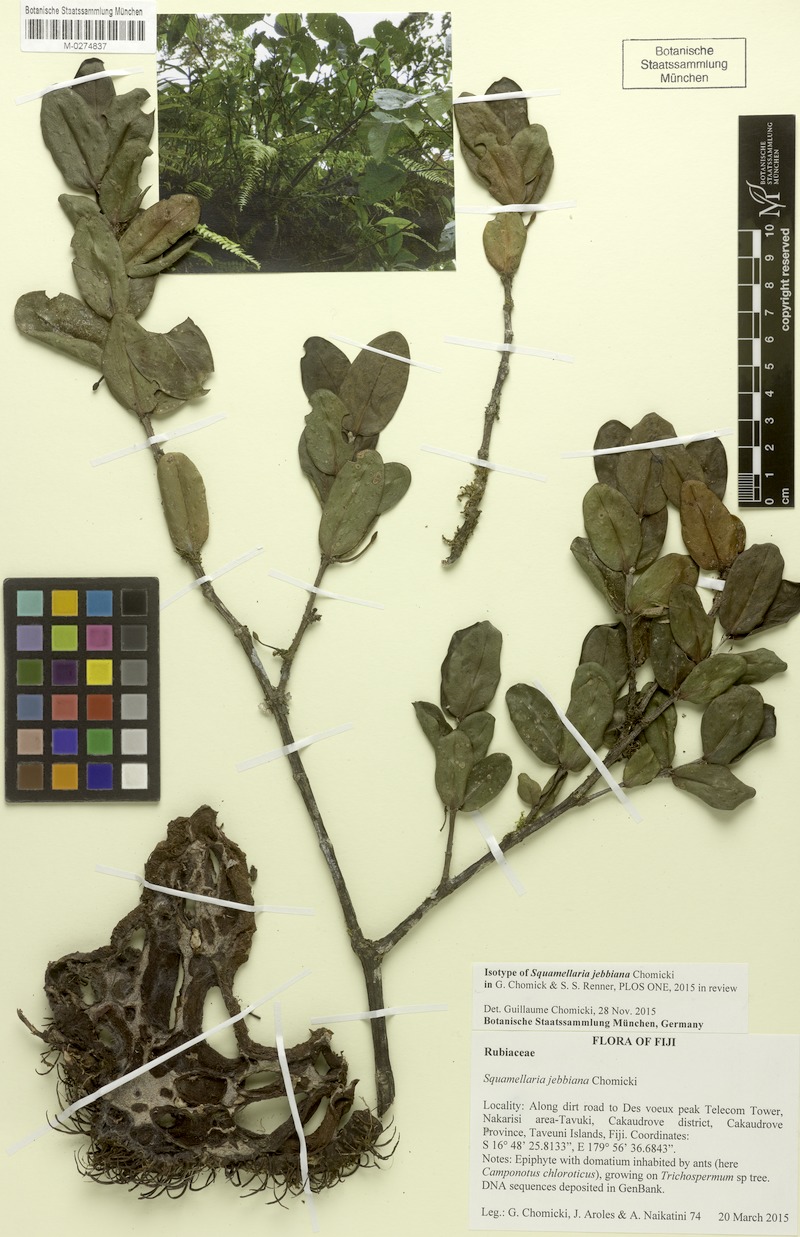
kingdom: Plantae
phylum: Tracheophyta
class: Magnoliopsida
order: Gentianales
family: Rubiaceae
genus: Hydnophytum
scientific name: Hydnophytum grandiflorum
